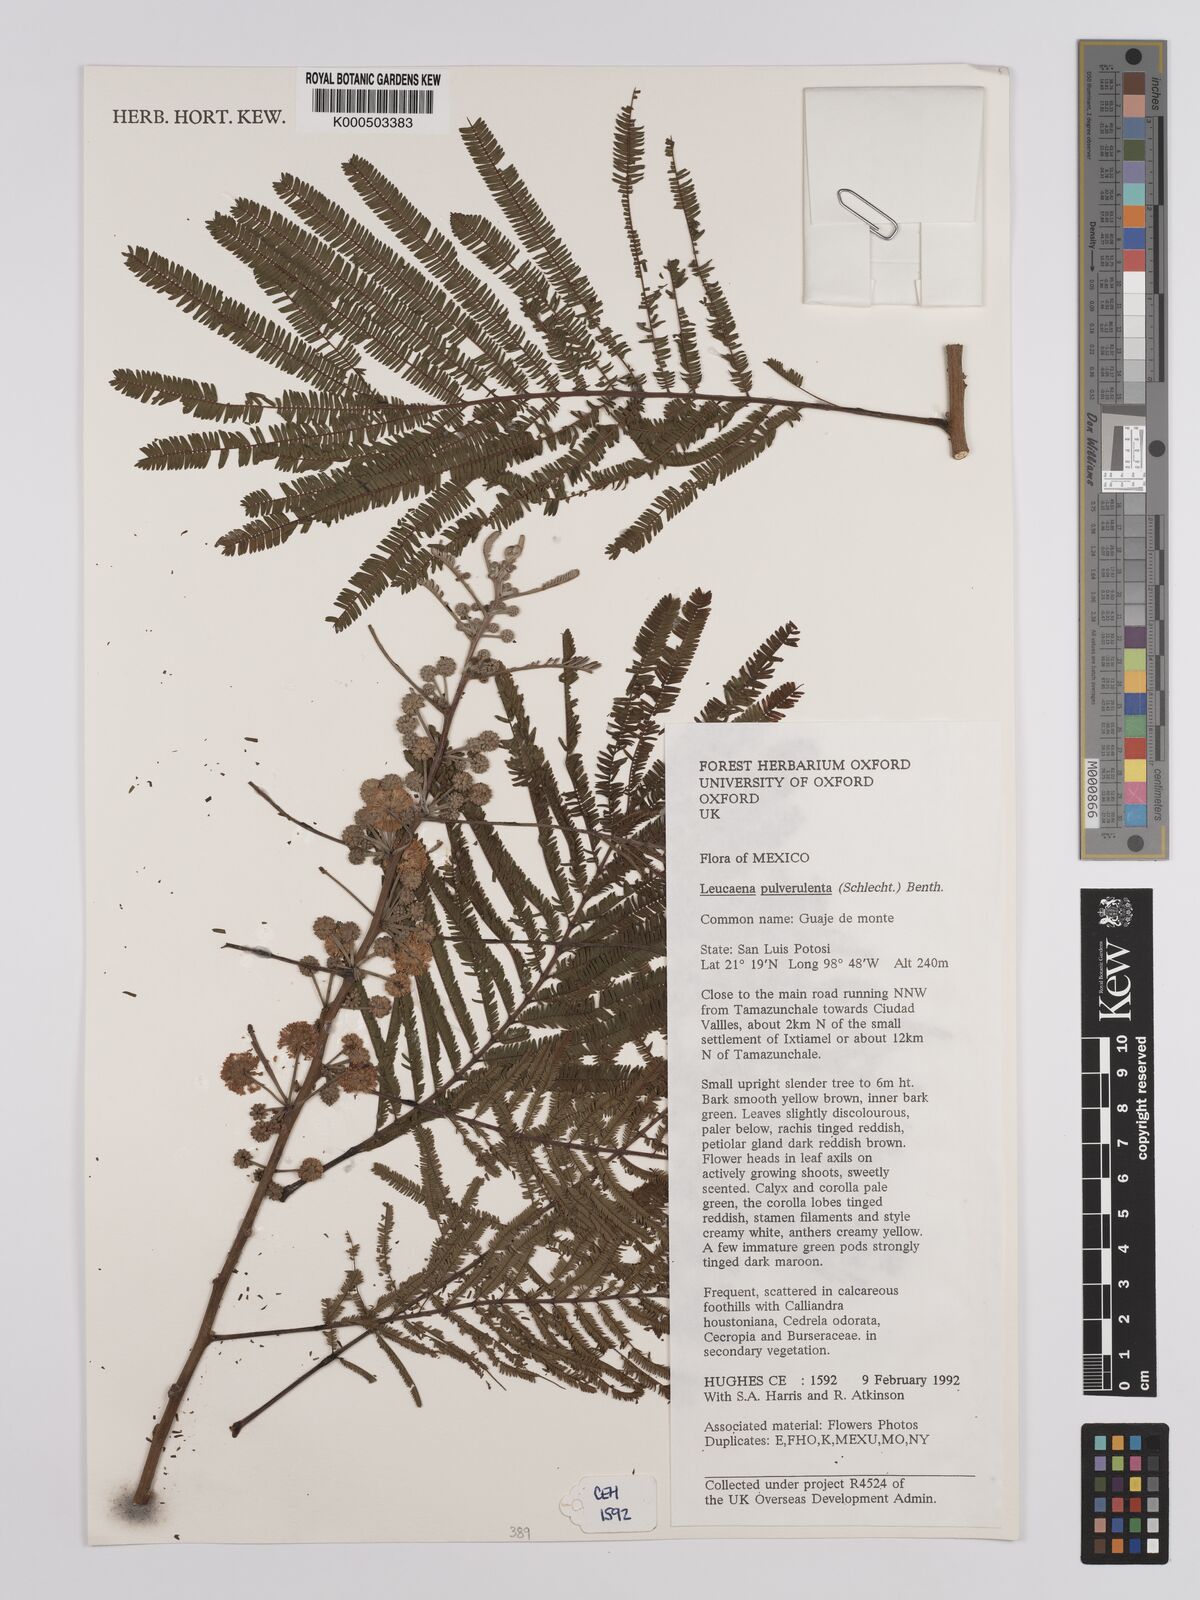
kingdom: Plantae
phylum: Tracheophyta
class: Magnoliopsida
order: Fabales
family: Fabaceae
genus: Leucaena
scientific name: Leucaena pulverulenta
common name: Great leadtree
